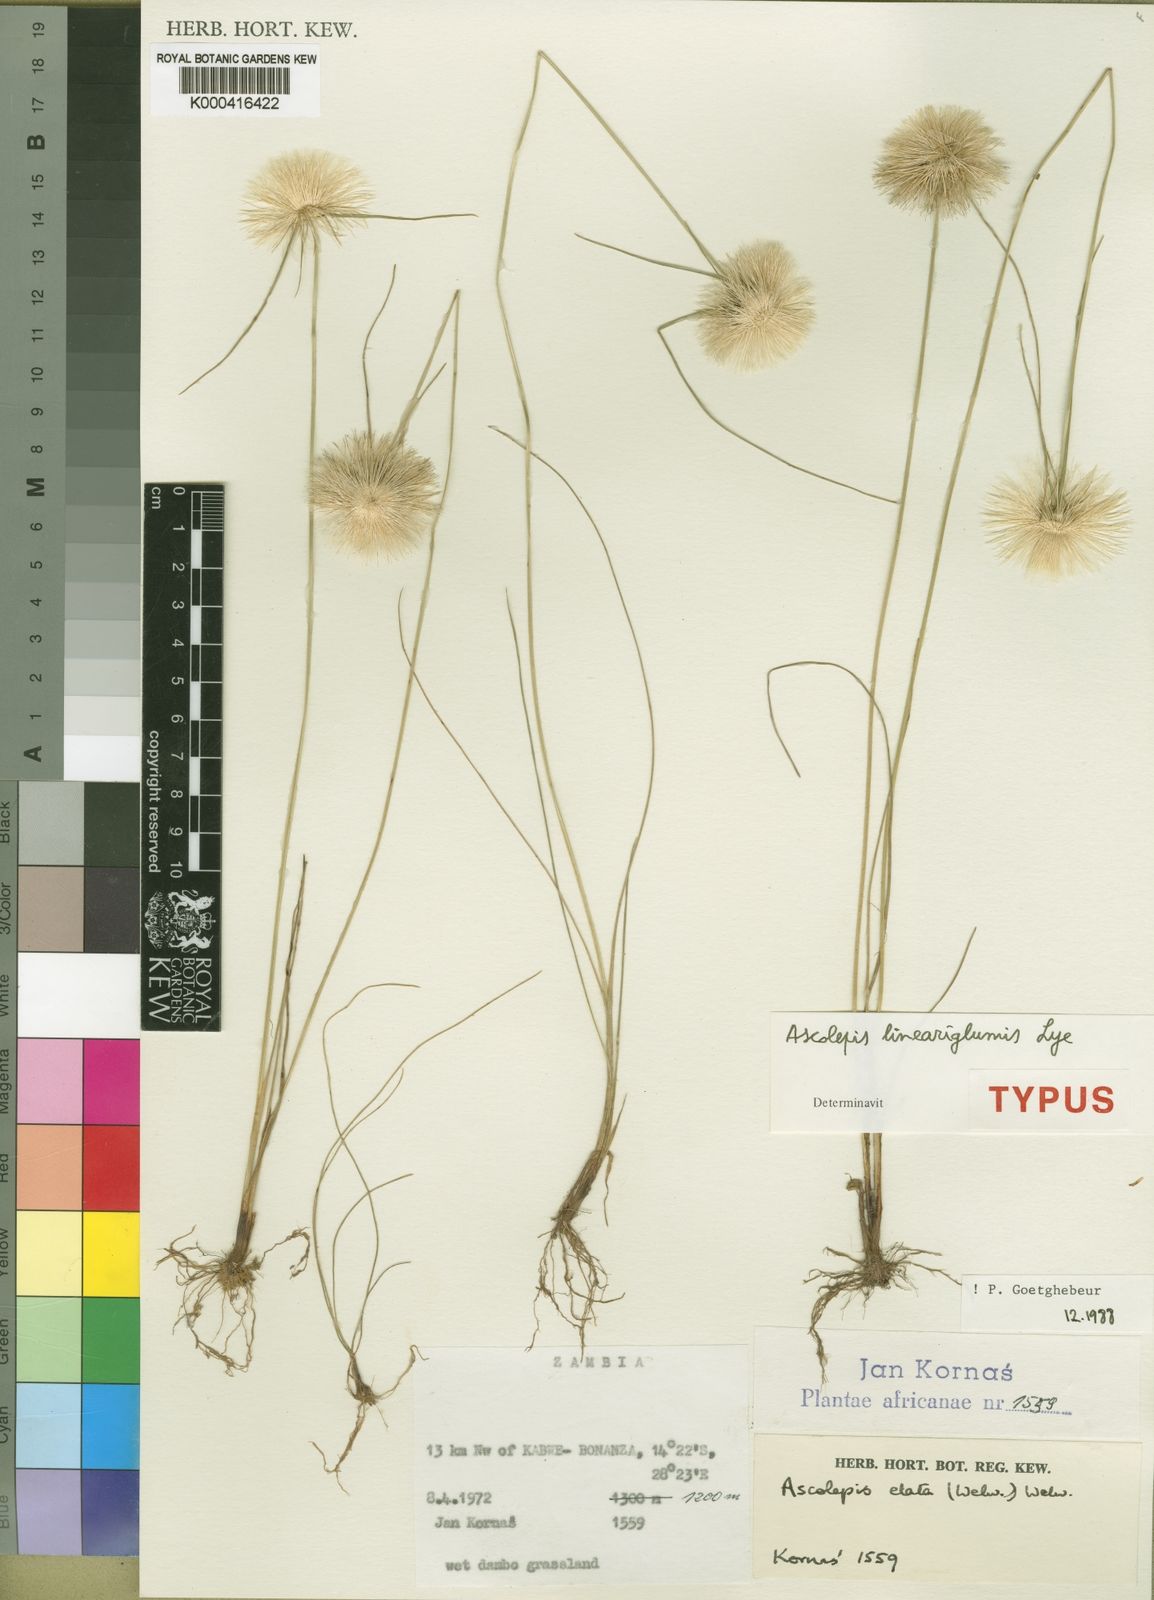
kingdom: Plantae
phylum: Tracheophyta
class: Liliopsida
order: Poales
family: Cyperaceae
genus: Cyperus
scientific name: Cyperus proteus
